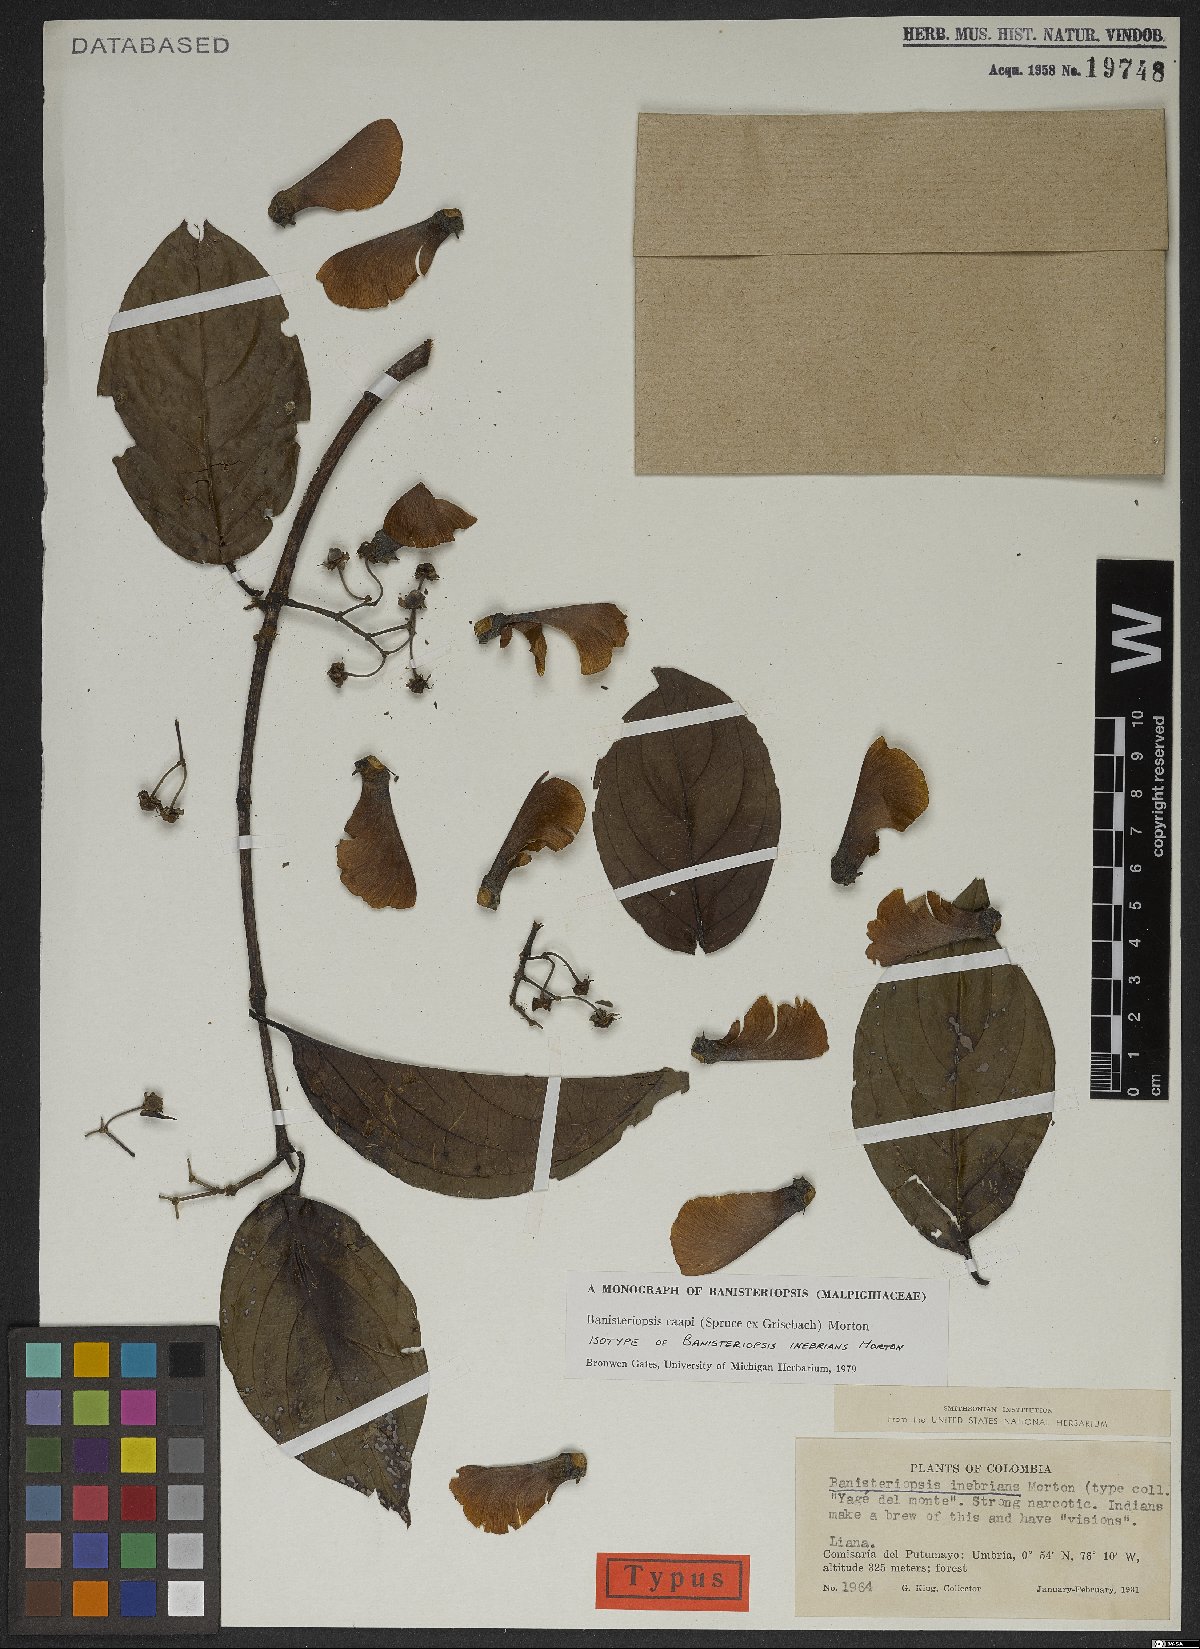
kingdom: Plantae
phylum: Tracheophyta
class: Magnoliopsida
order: Malpighiales
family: Malpighiaceae
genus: Banisteriopsis
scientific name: Banisteriopsis caapi
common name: Soulvine
